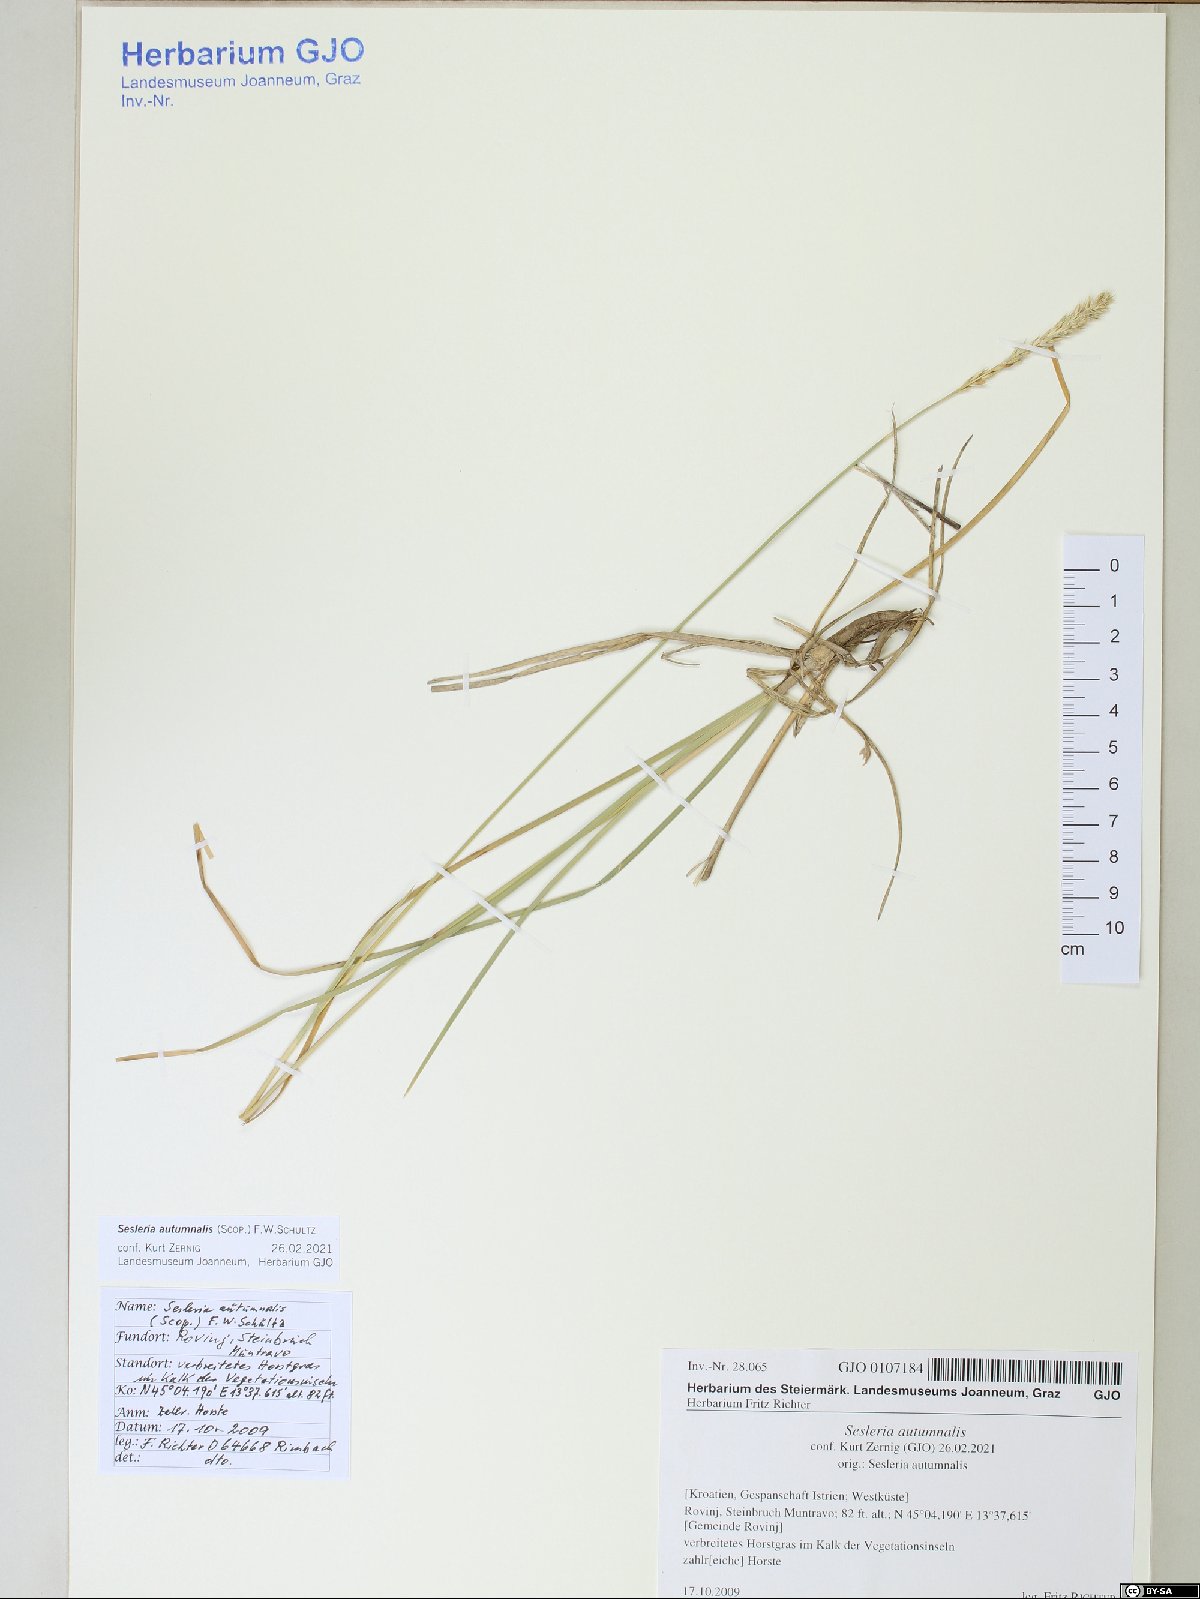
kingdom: Plantae
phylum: Tracheophyta
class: Liliopsida
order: Poales
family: Poaceae
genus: Sesleria
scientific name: Sesleria autumnalis
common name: Autumn moor grass
